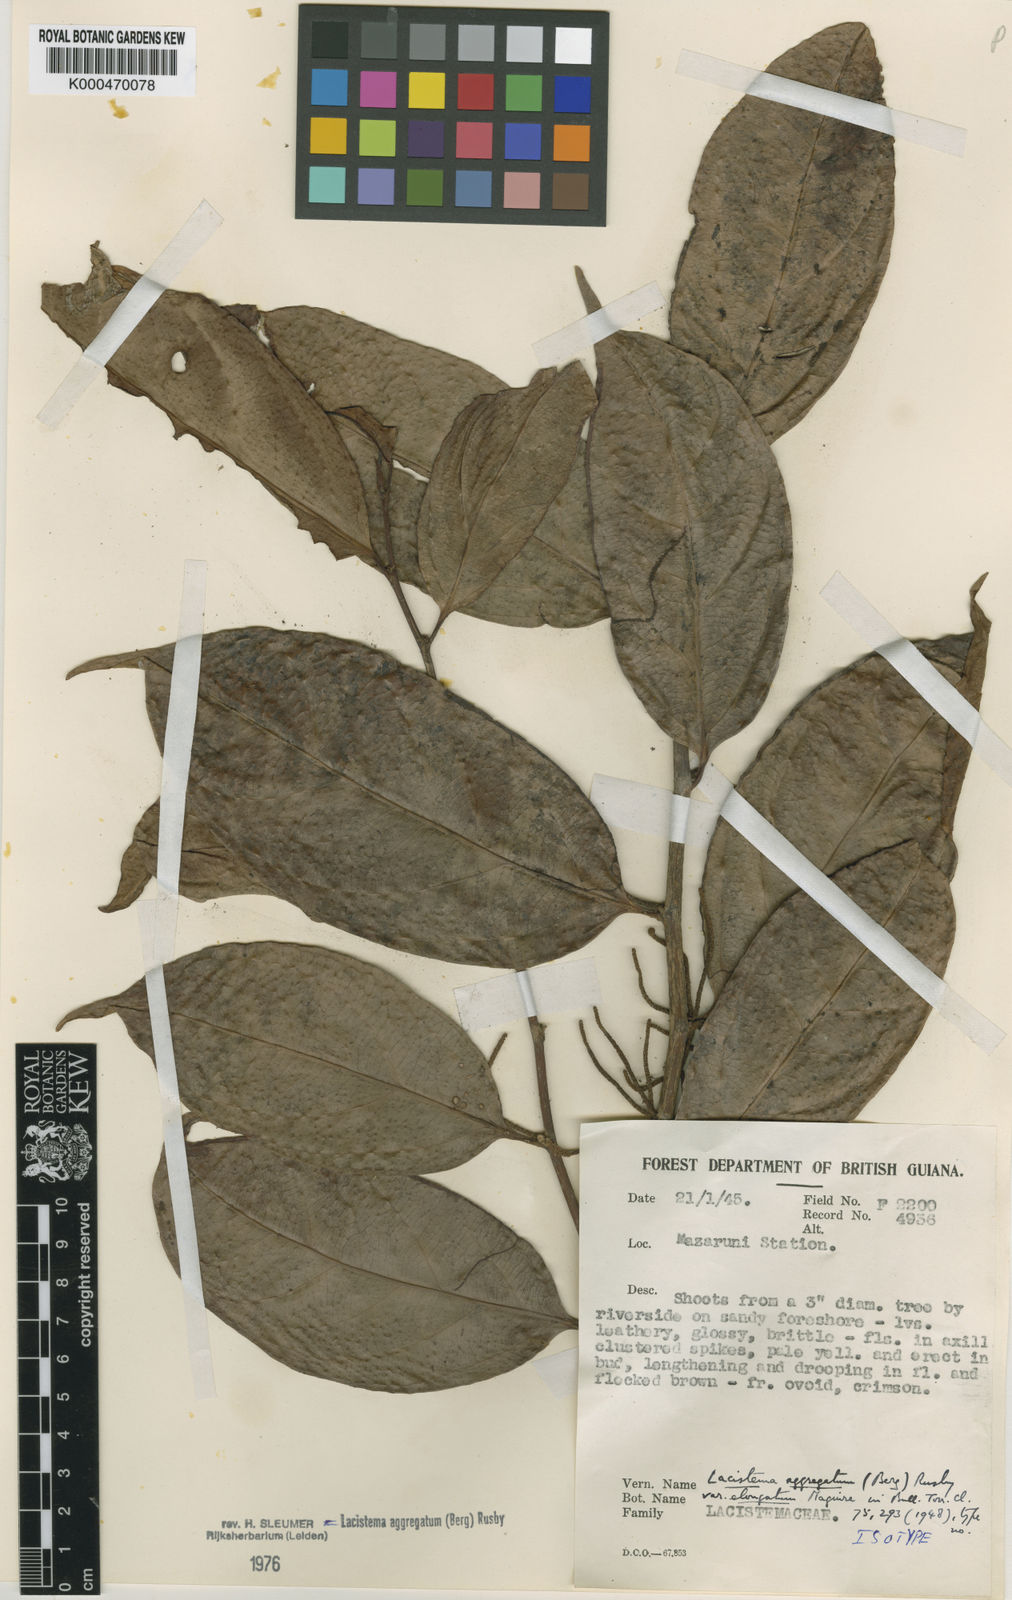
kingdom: Plantae
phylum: Tracheophyta
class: Magnoliopsida
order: Malpighiales
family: Lacistemataceae
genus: Lacistema
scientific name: Lacistema aggregatum
